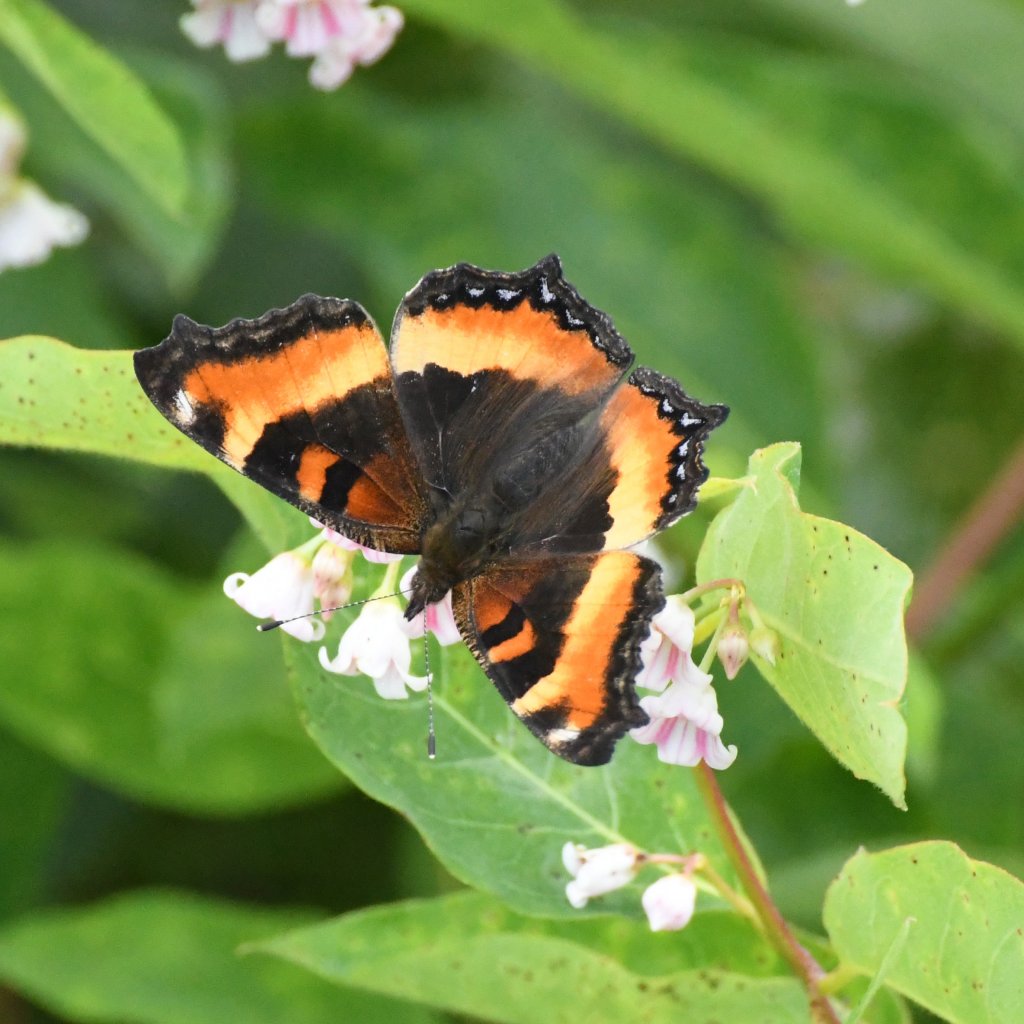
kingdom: Animalia
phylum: Arthropoda
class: Insecta
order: Lepidoptera
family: Nymphalidae
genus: Aglais
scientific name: Aglais milberti
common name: Milbert's Tortoiseshell
